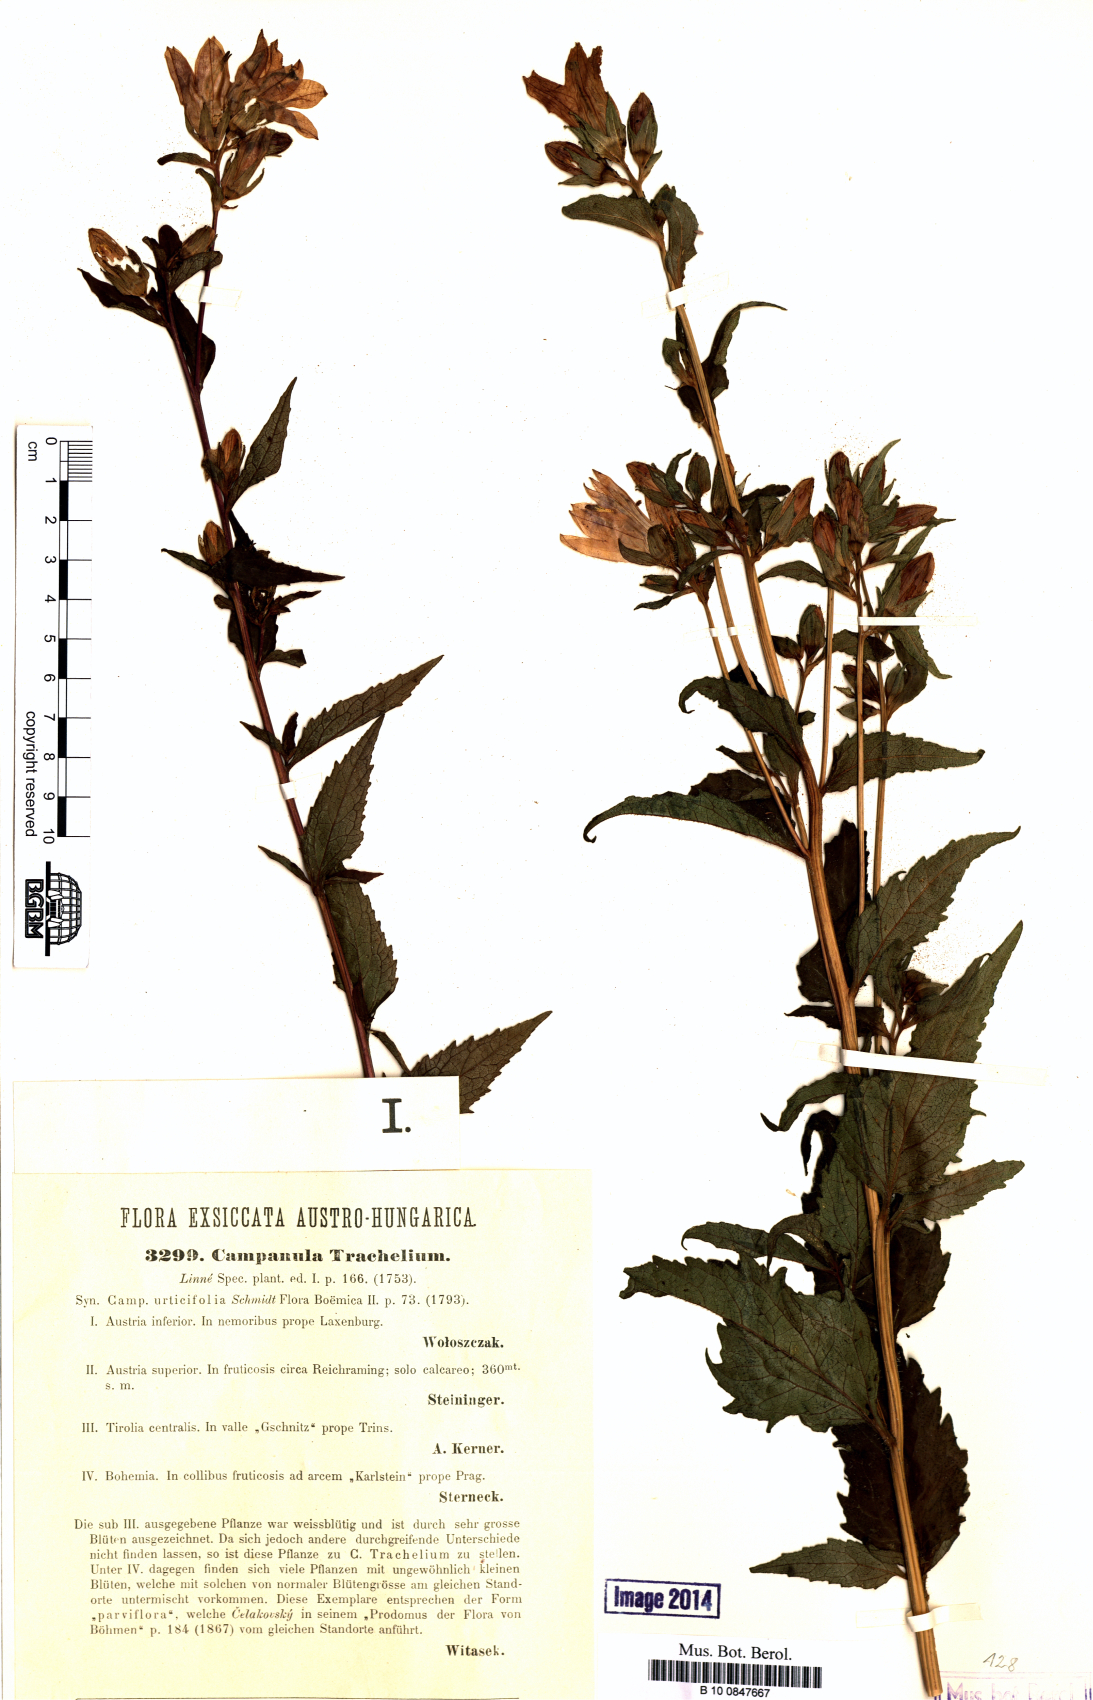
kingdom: Plantae
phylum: Tracheophyta
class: Magnoliopsida
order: Asterales
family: Campanulaceae
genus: Campanula
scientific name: Campanula trachelium
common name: Nettle-leaved bellflower
